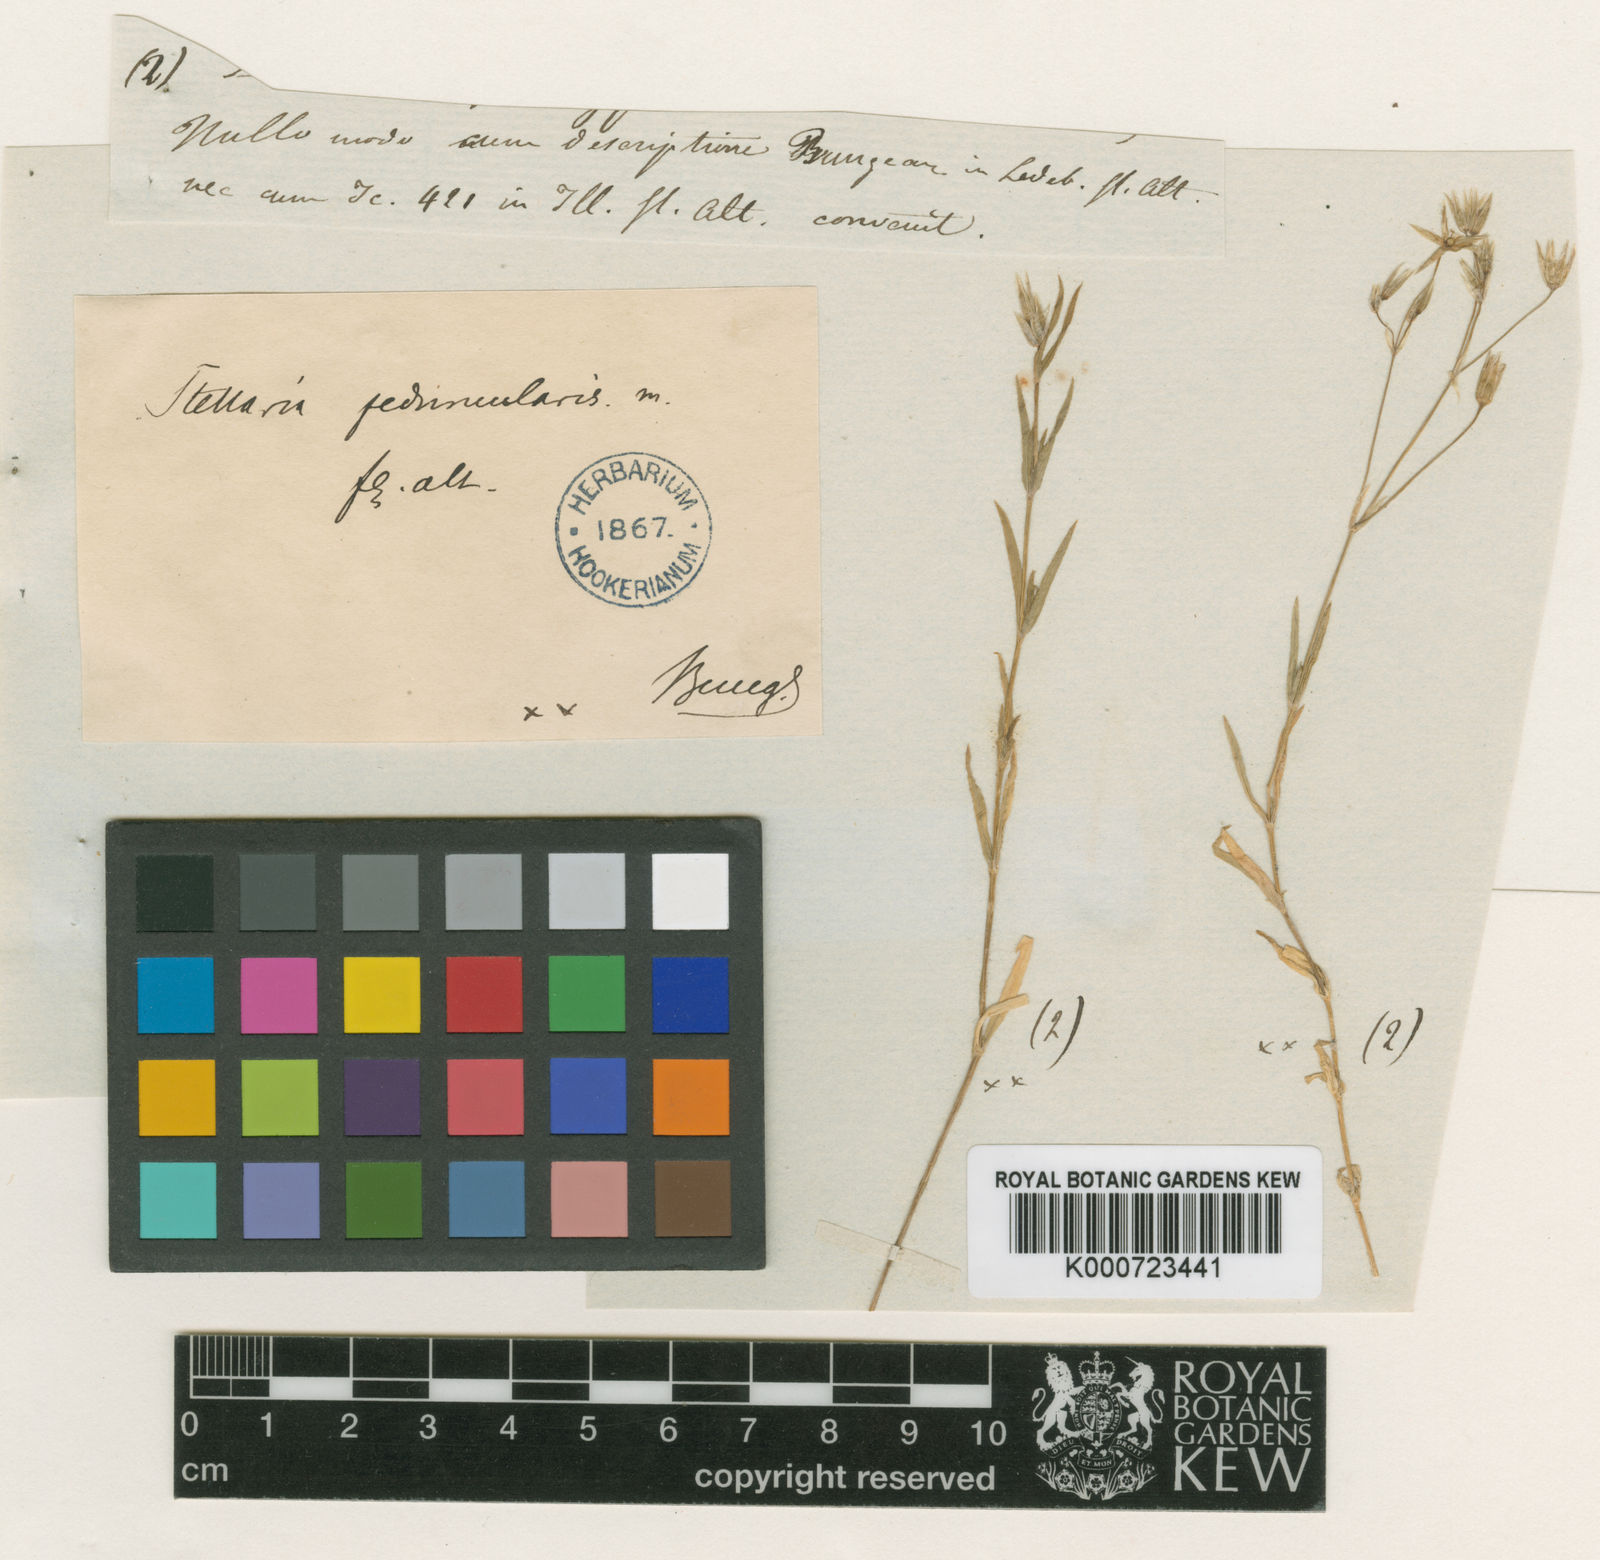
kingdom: Plantae
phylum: Tracheophyta
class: Magnoliopsida
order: Caryophyllales
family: Caryophyllaceae
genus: Stellaria
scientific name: Stellaria peduncularis
